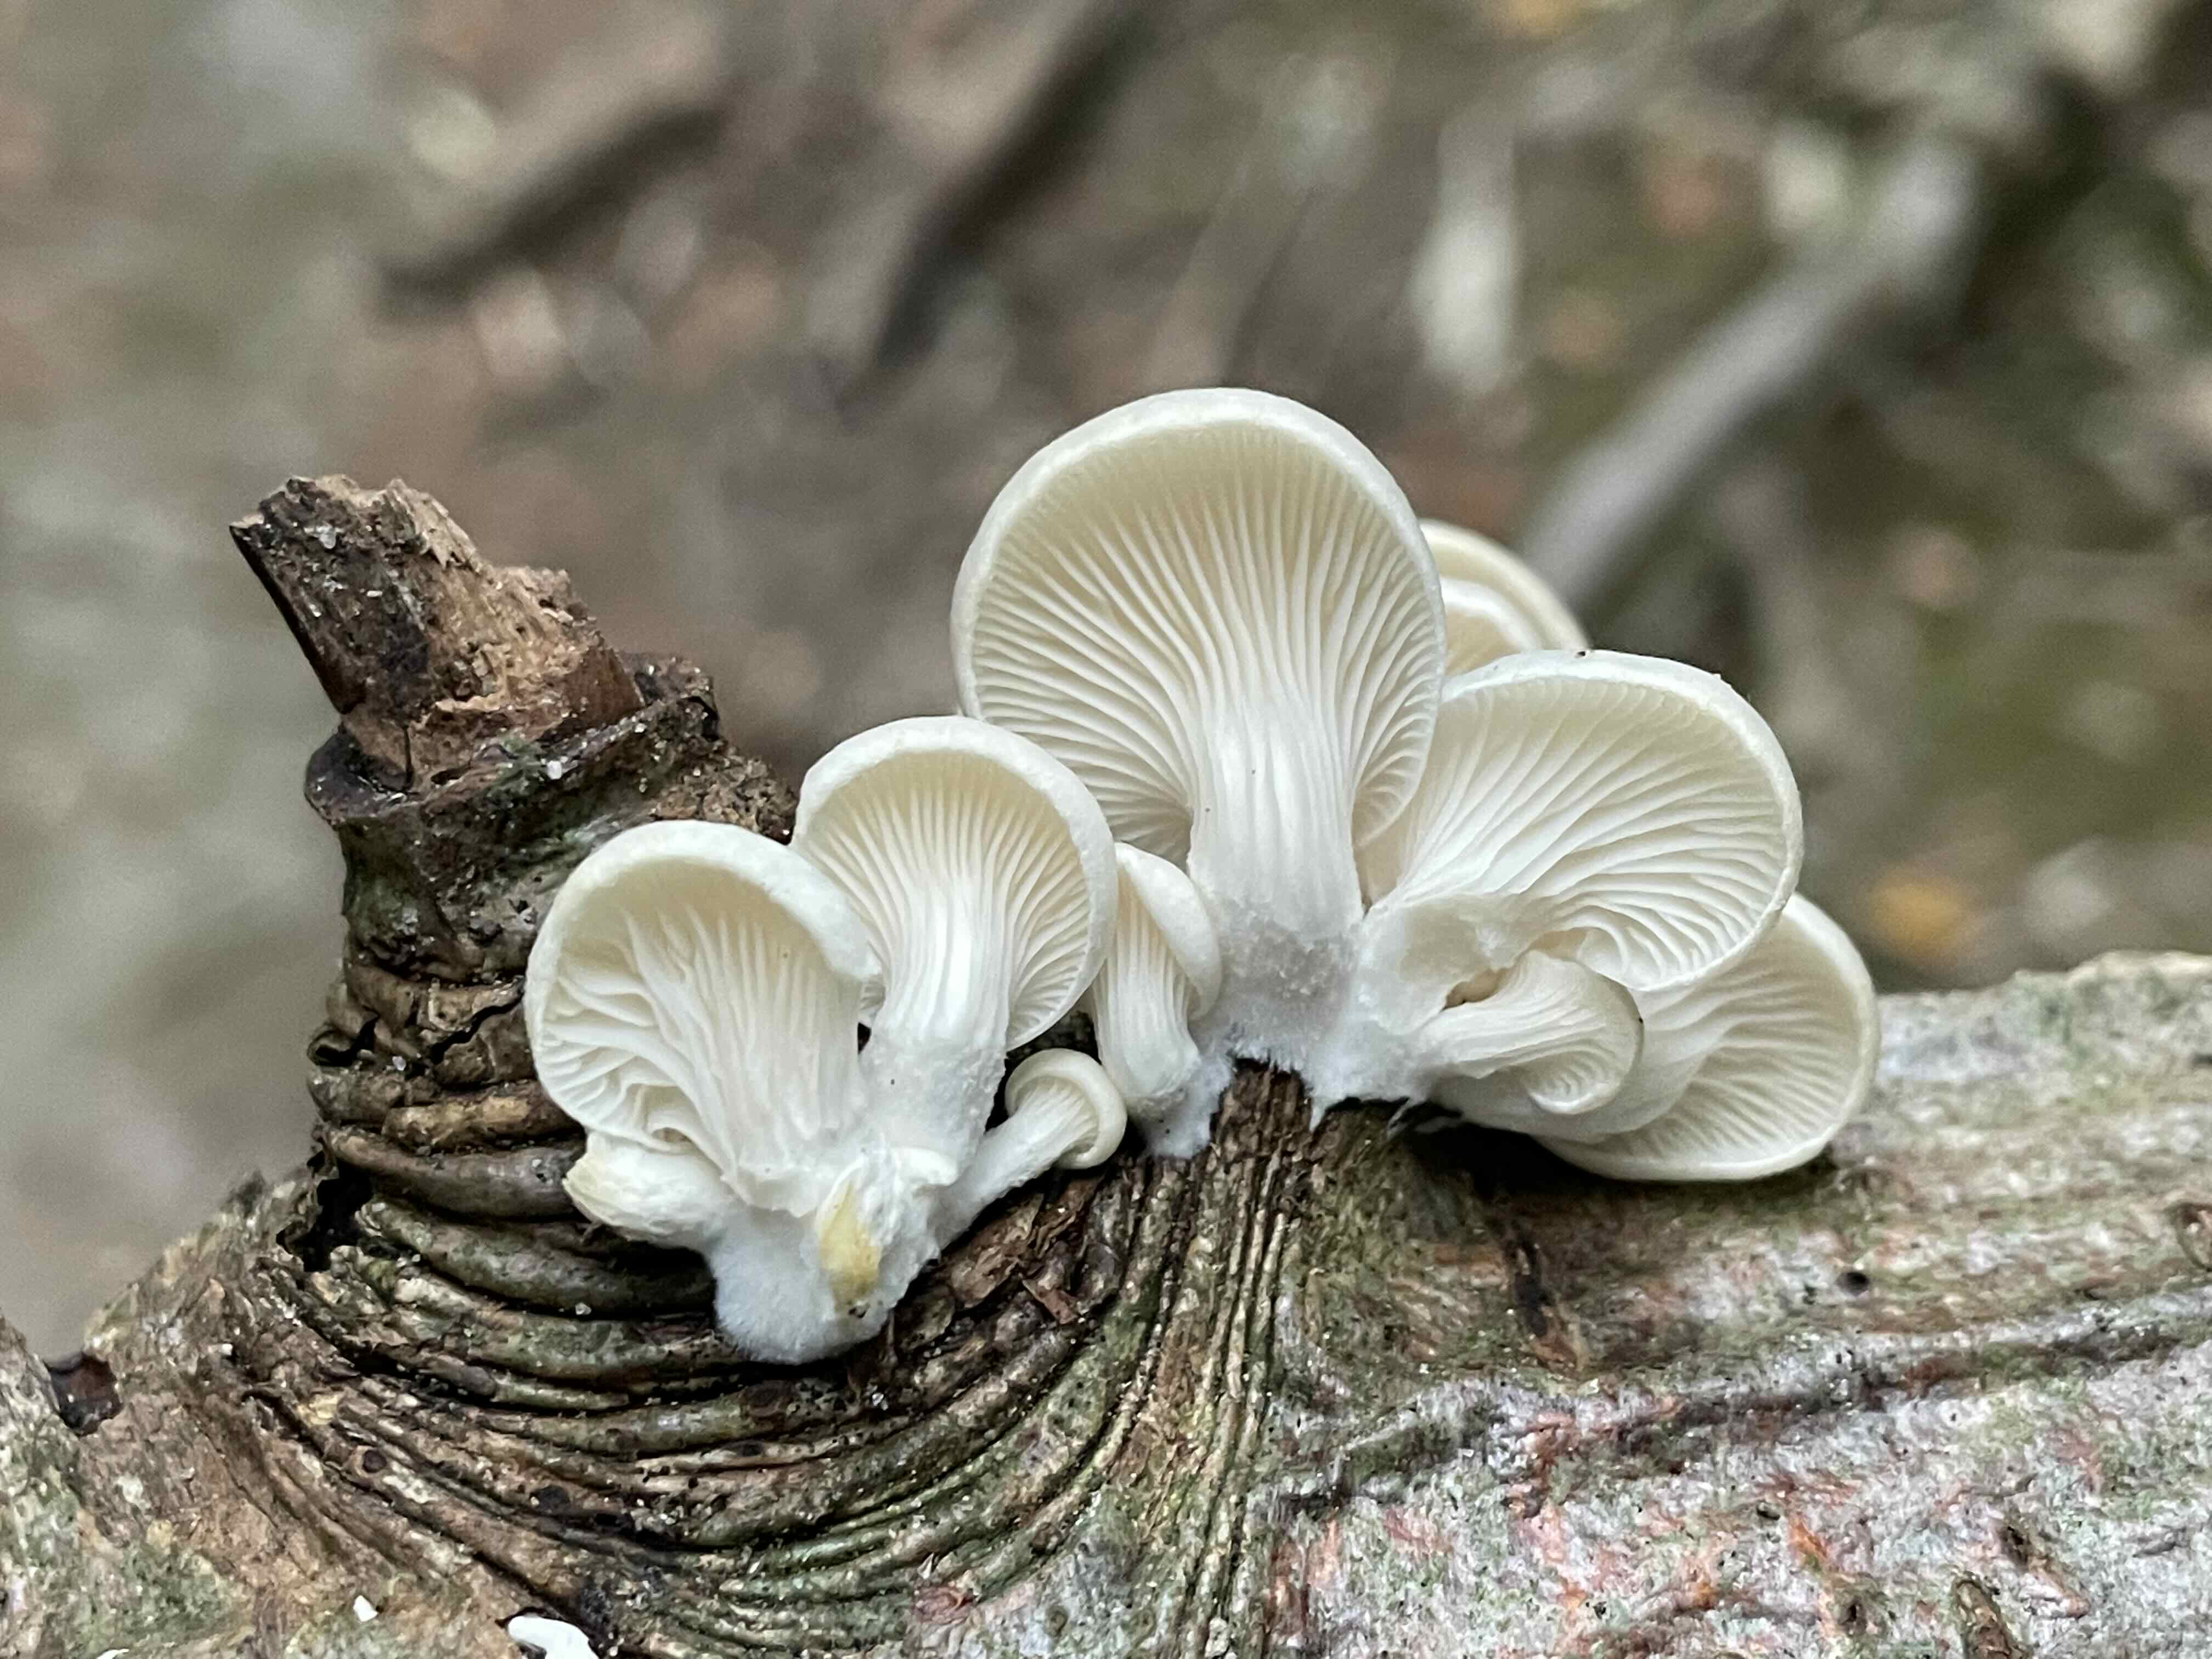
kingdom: Fungi
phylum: Basidiomycota
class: Agaricomycetes
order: Agaricales
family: Pleurotaceae
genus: Pleurotus
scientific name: Pleurotus pulmonarius
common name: sommer-østershat
